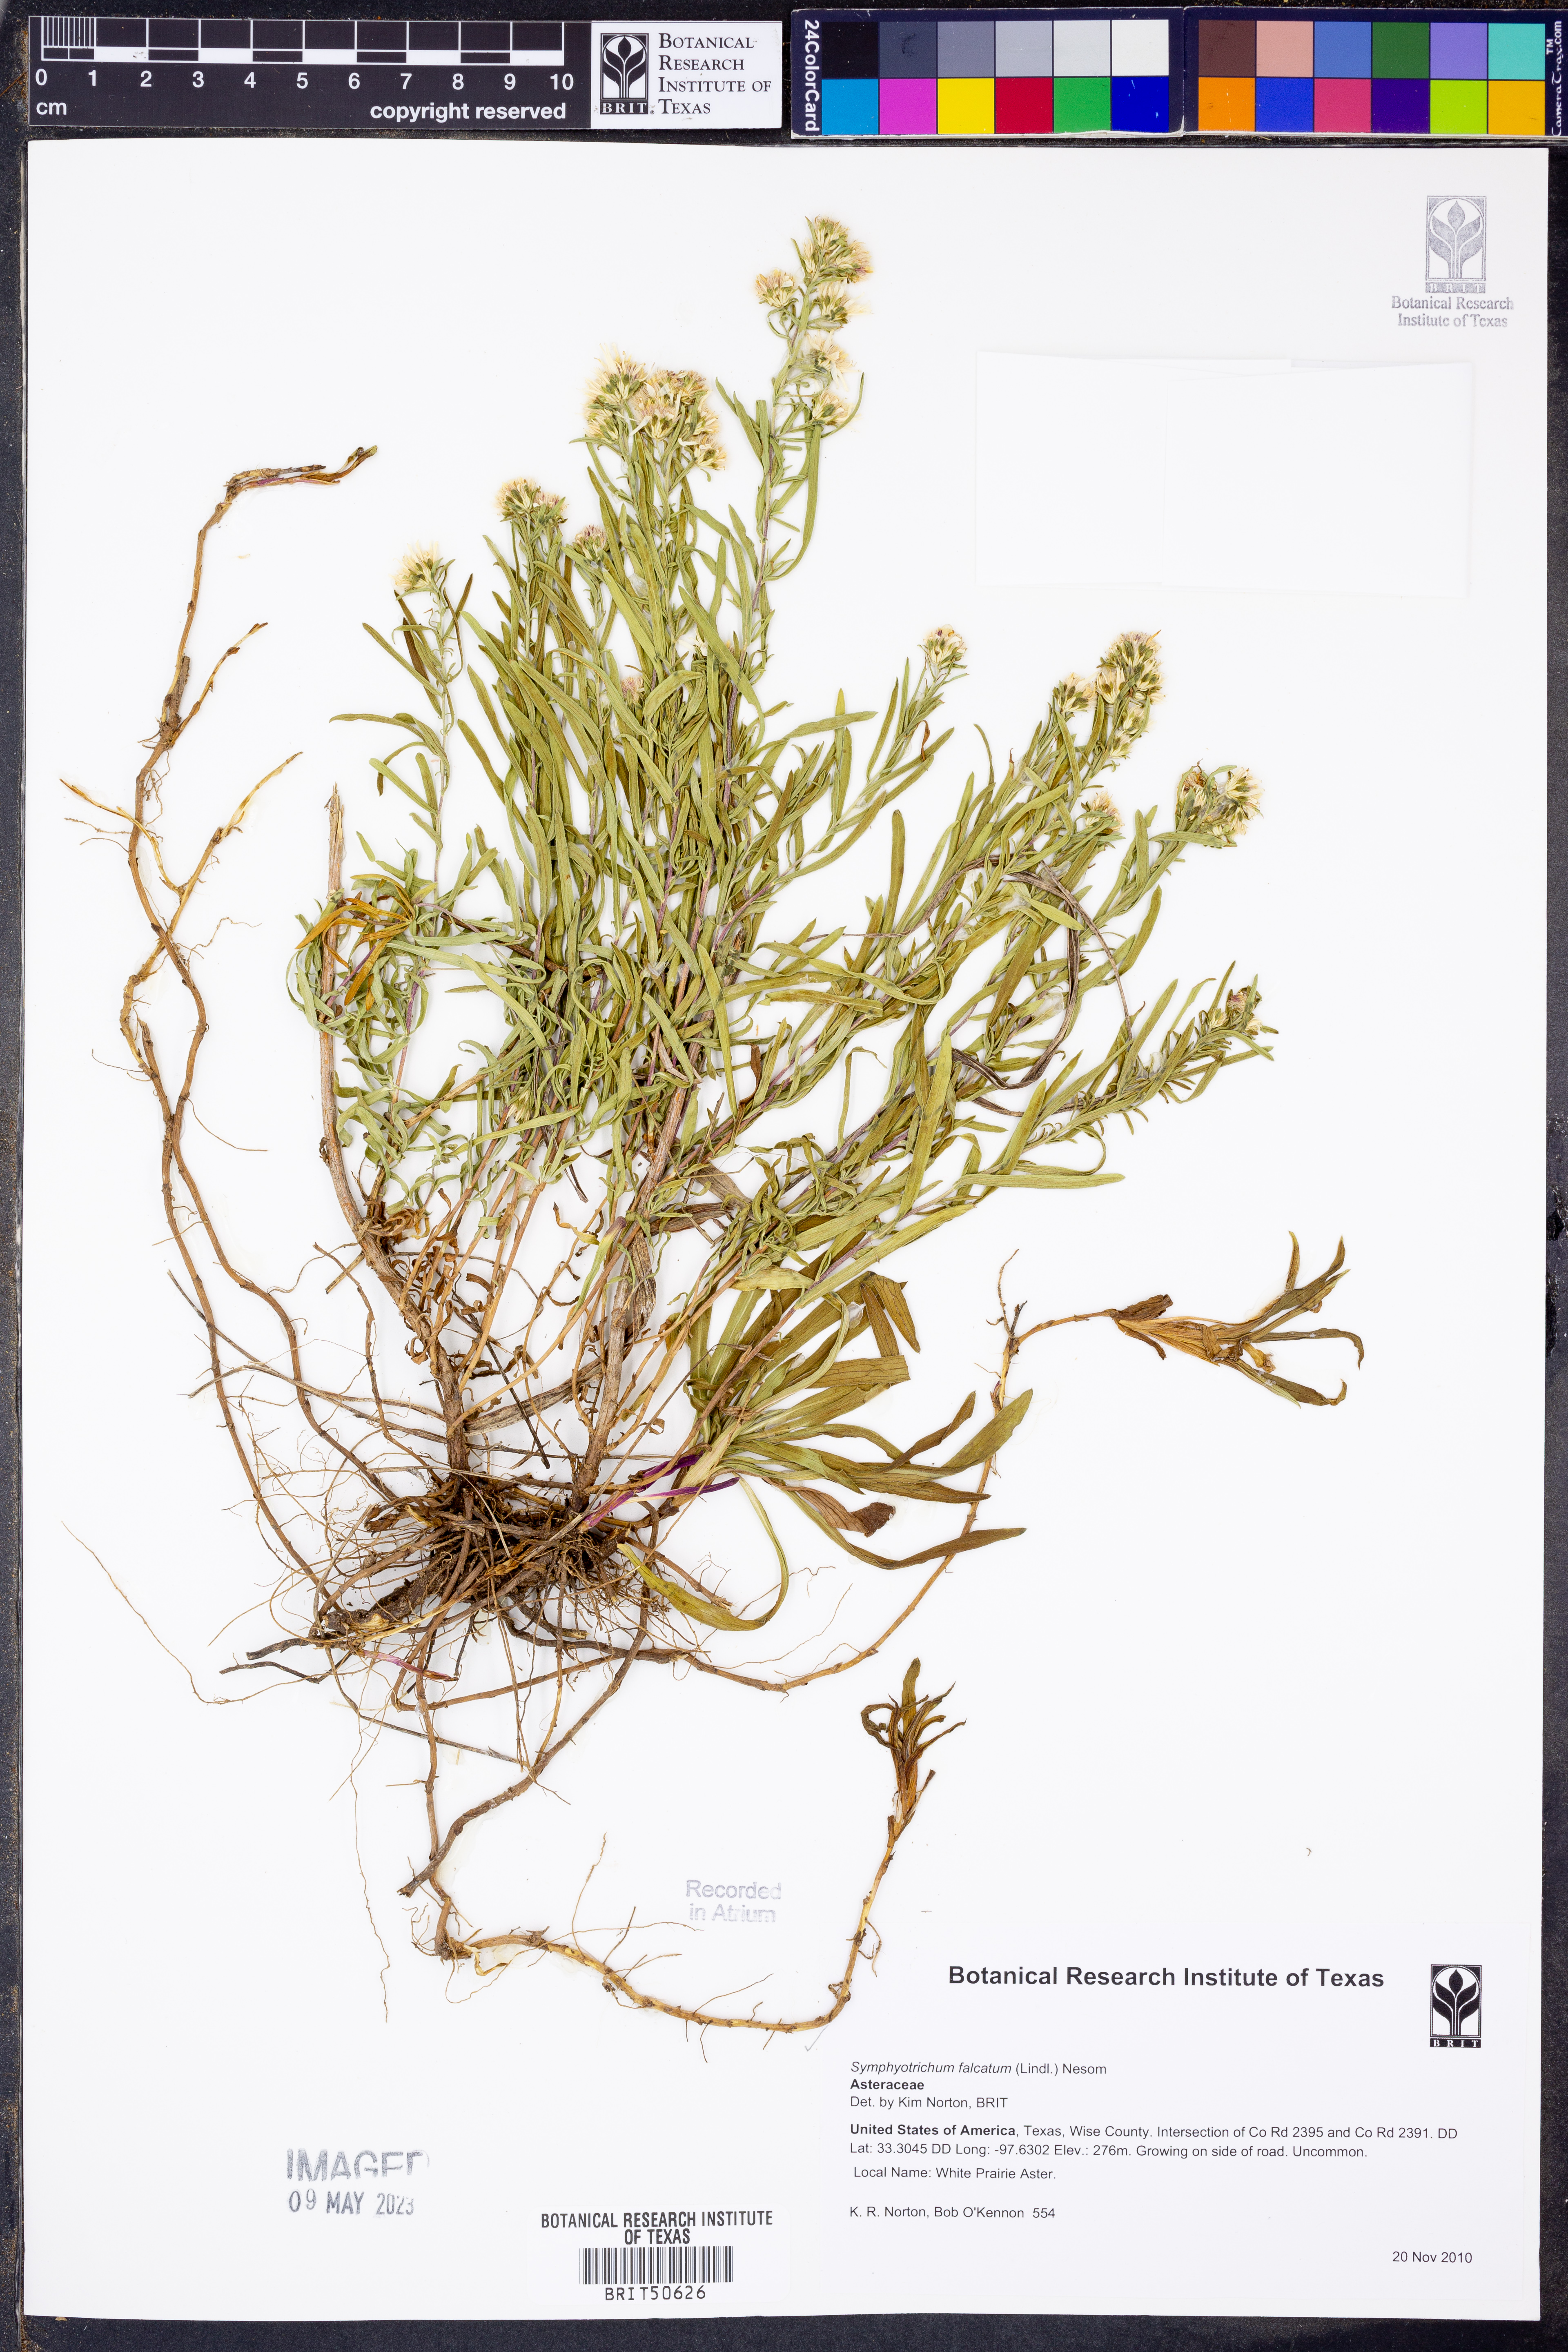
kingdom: Plantae
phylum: Tracheophyta
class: Magnoliopsida
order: Asterales
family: Asteraceae
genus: Symphyotrichum
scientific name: Symphyotrichum falcatum
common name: Creeping white prairie aster
